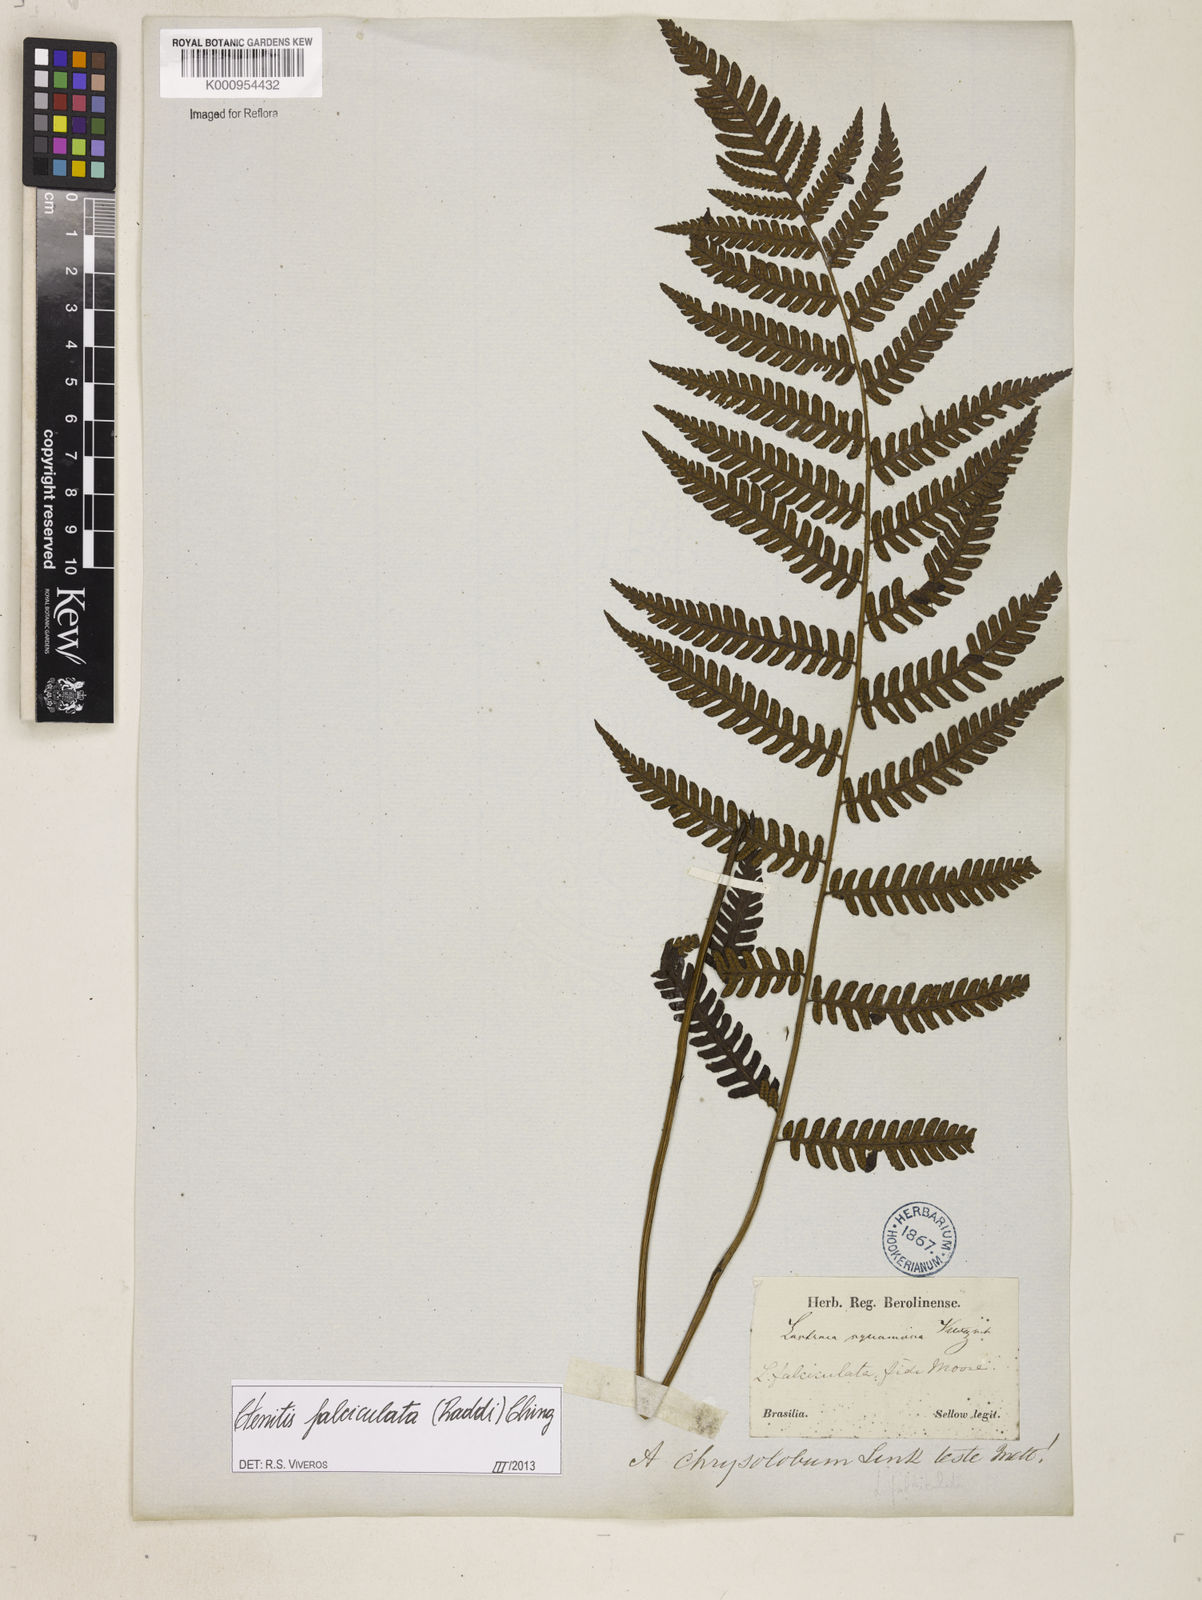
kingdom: Plantae
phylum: Tracheophyta
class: Polypodiopsida
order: Polypodiales
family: Dryopteridaceae
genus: Ctenitis
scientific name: Ctenitis falciculata
